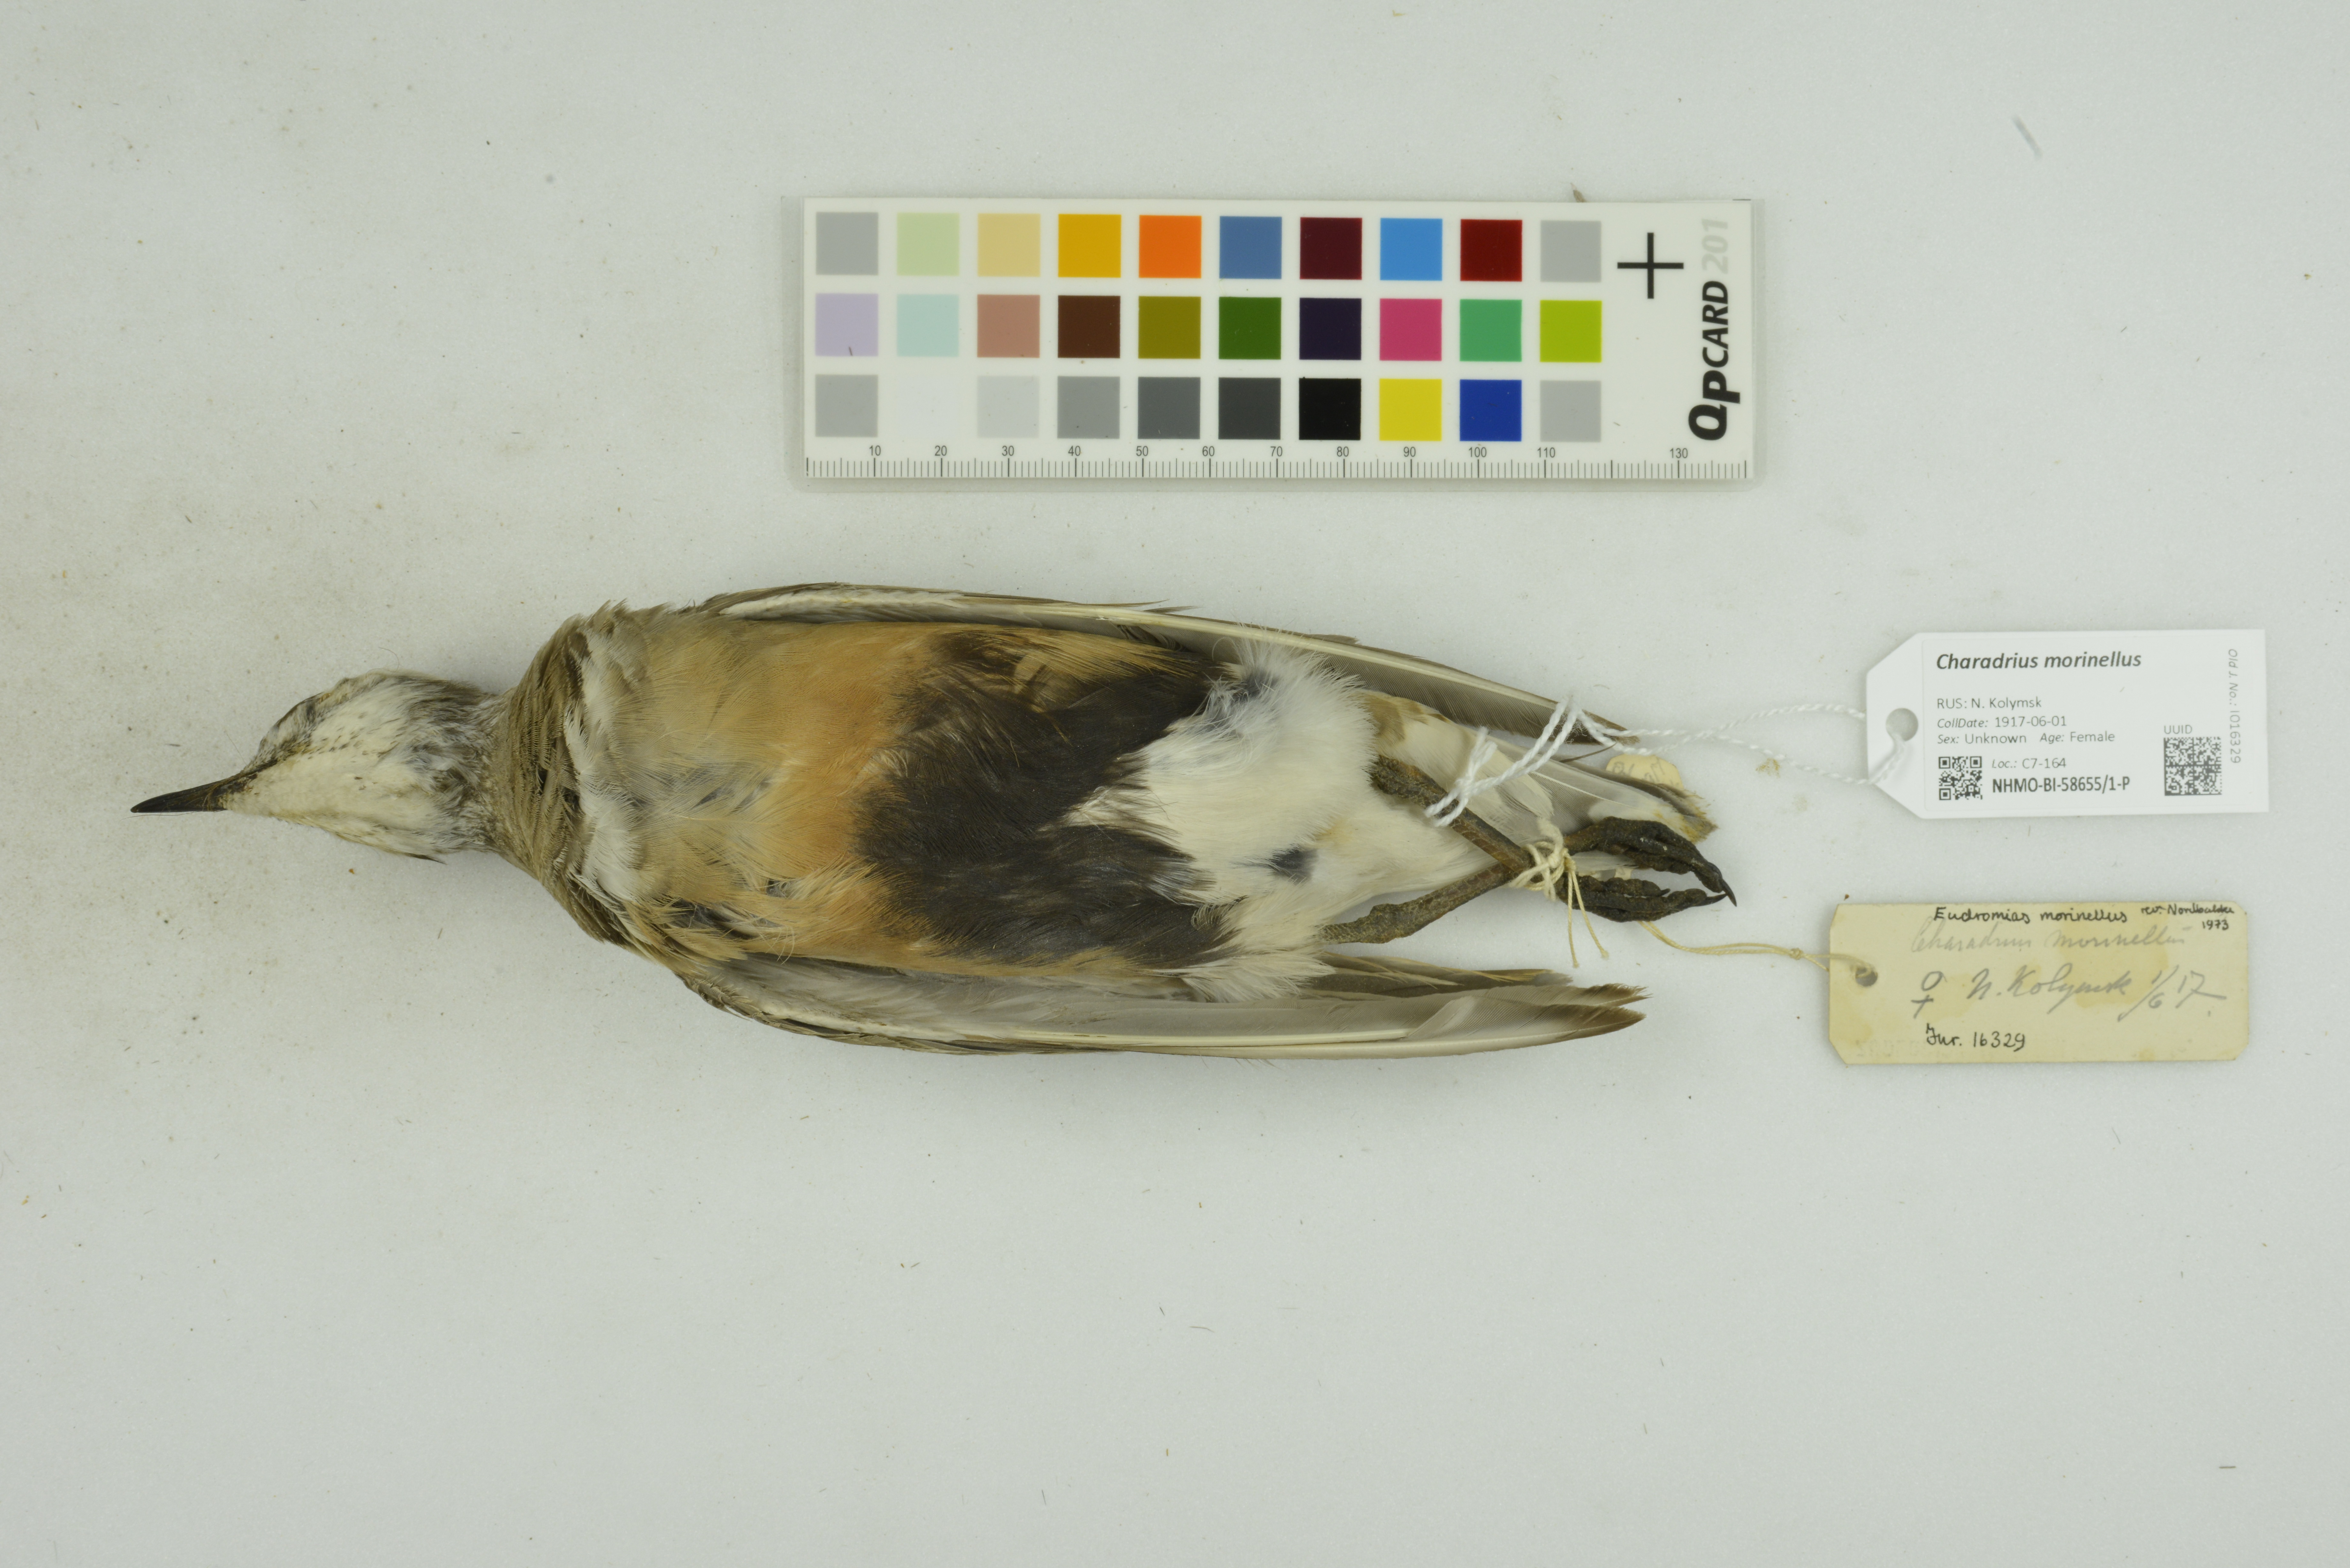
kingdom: Animalia
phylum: Chordata
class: Aves
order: Charadriiformes
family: Charadriidae
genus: Charadrius
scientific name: Charadrius morinellus
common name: Eurasian dotterel
